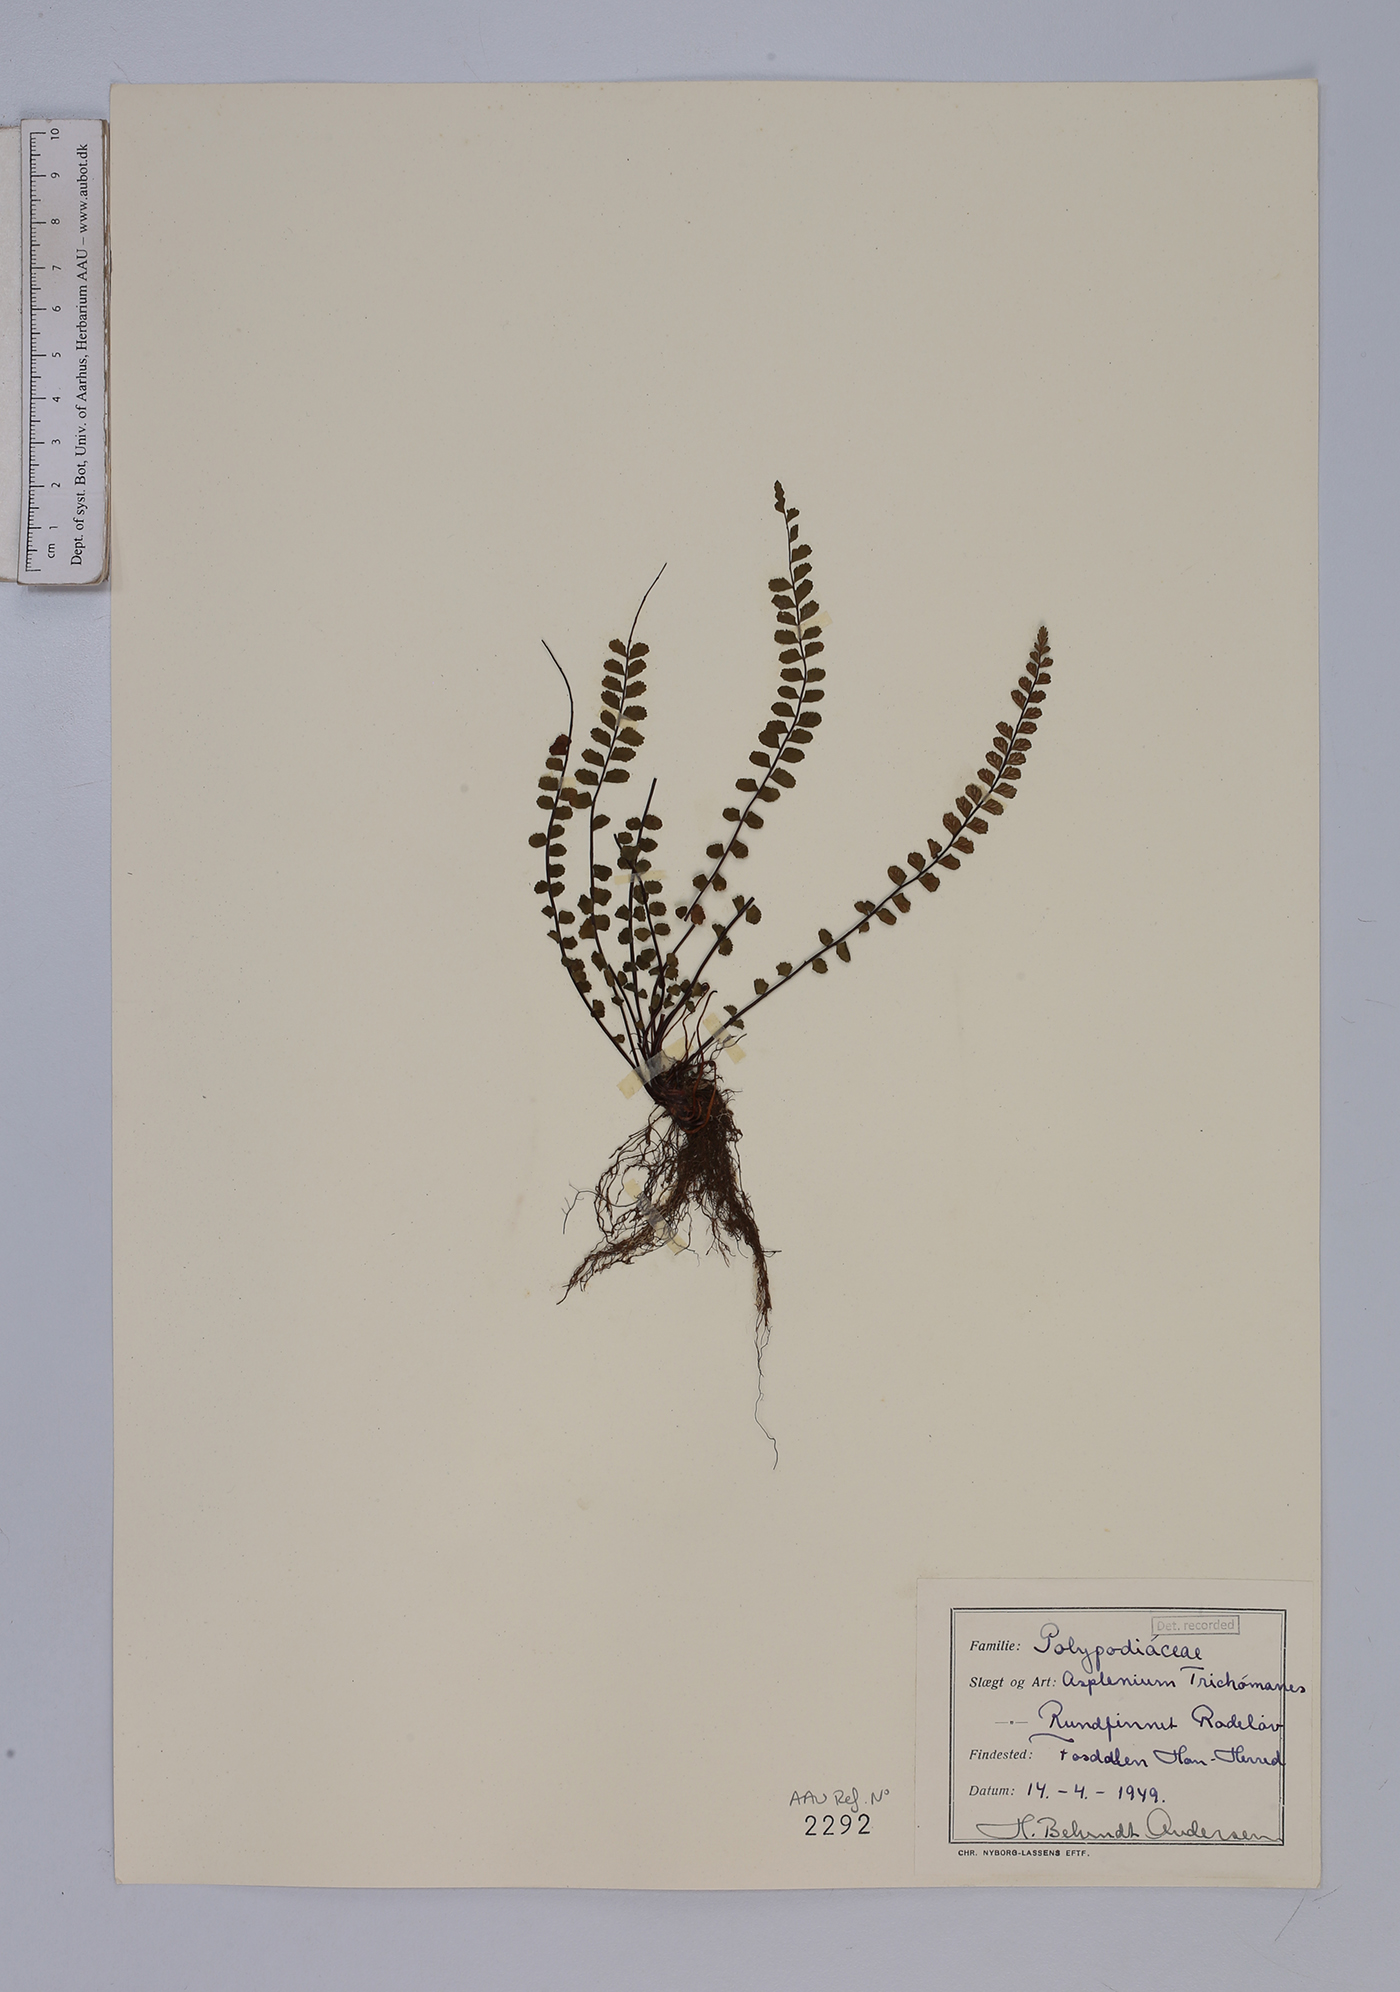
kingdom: Plantae
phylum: Tracheophyta
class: Polypodiopsida
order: Polypodiales
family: Aspleniaceae
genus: Asplenium
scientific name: Asplenium trichomanes
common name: Maidenhair spleenwort
